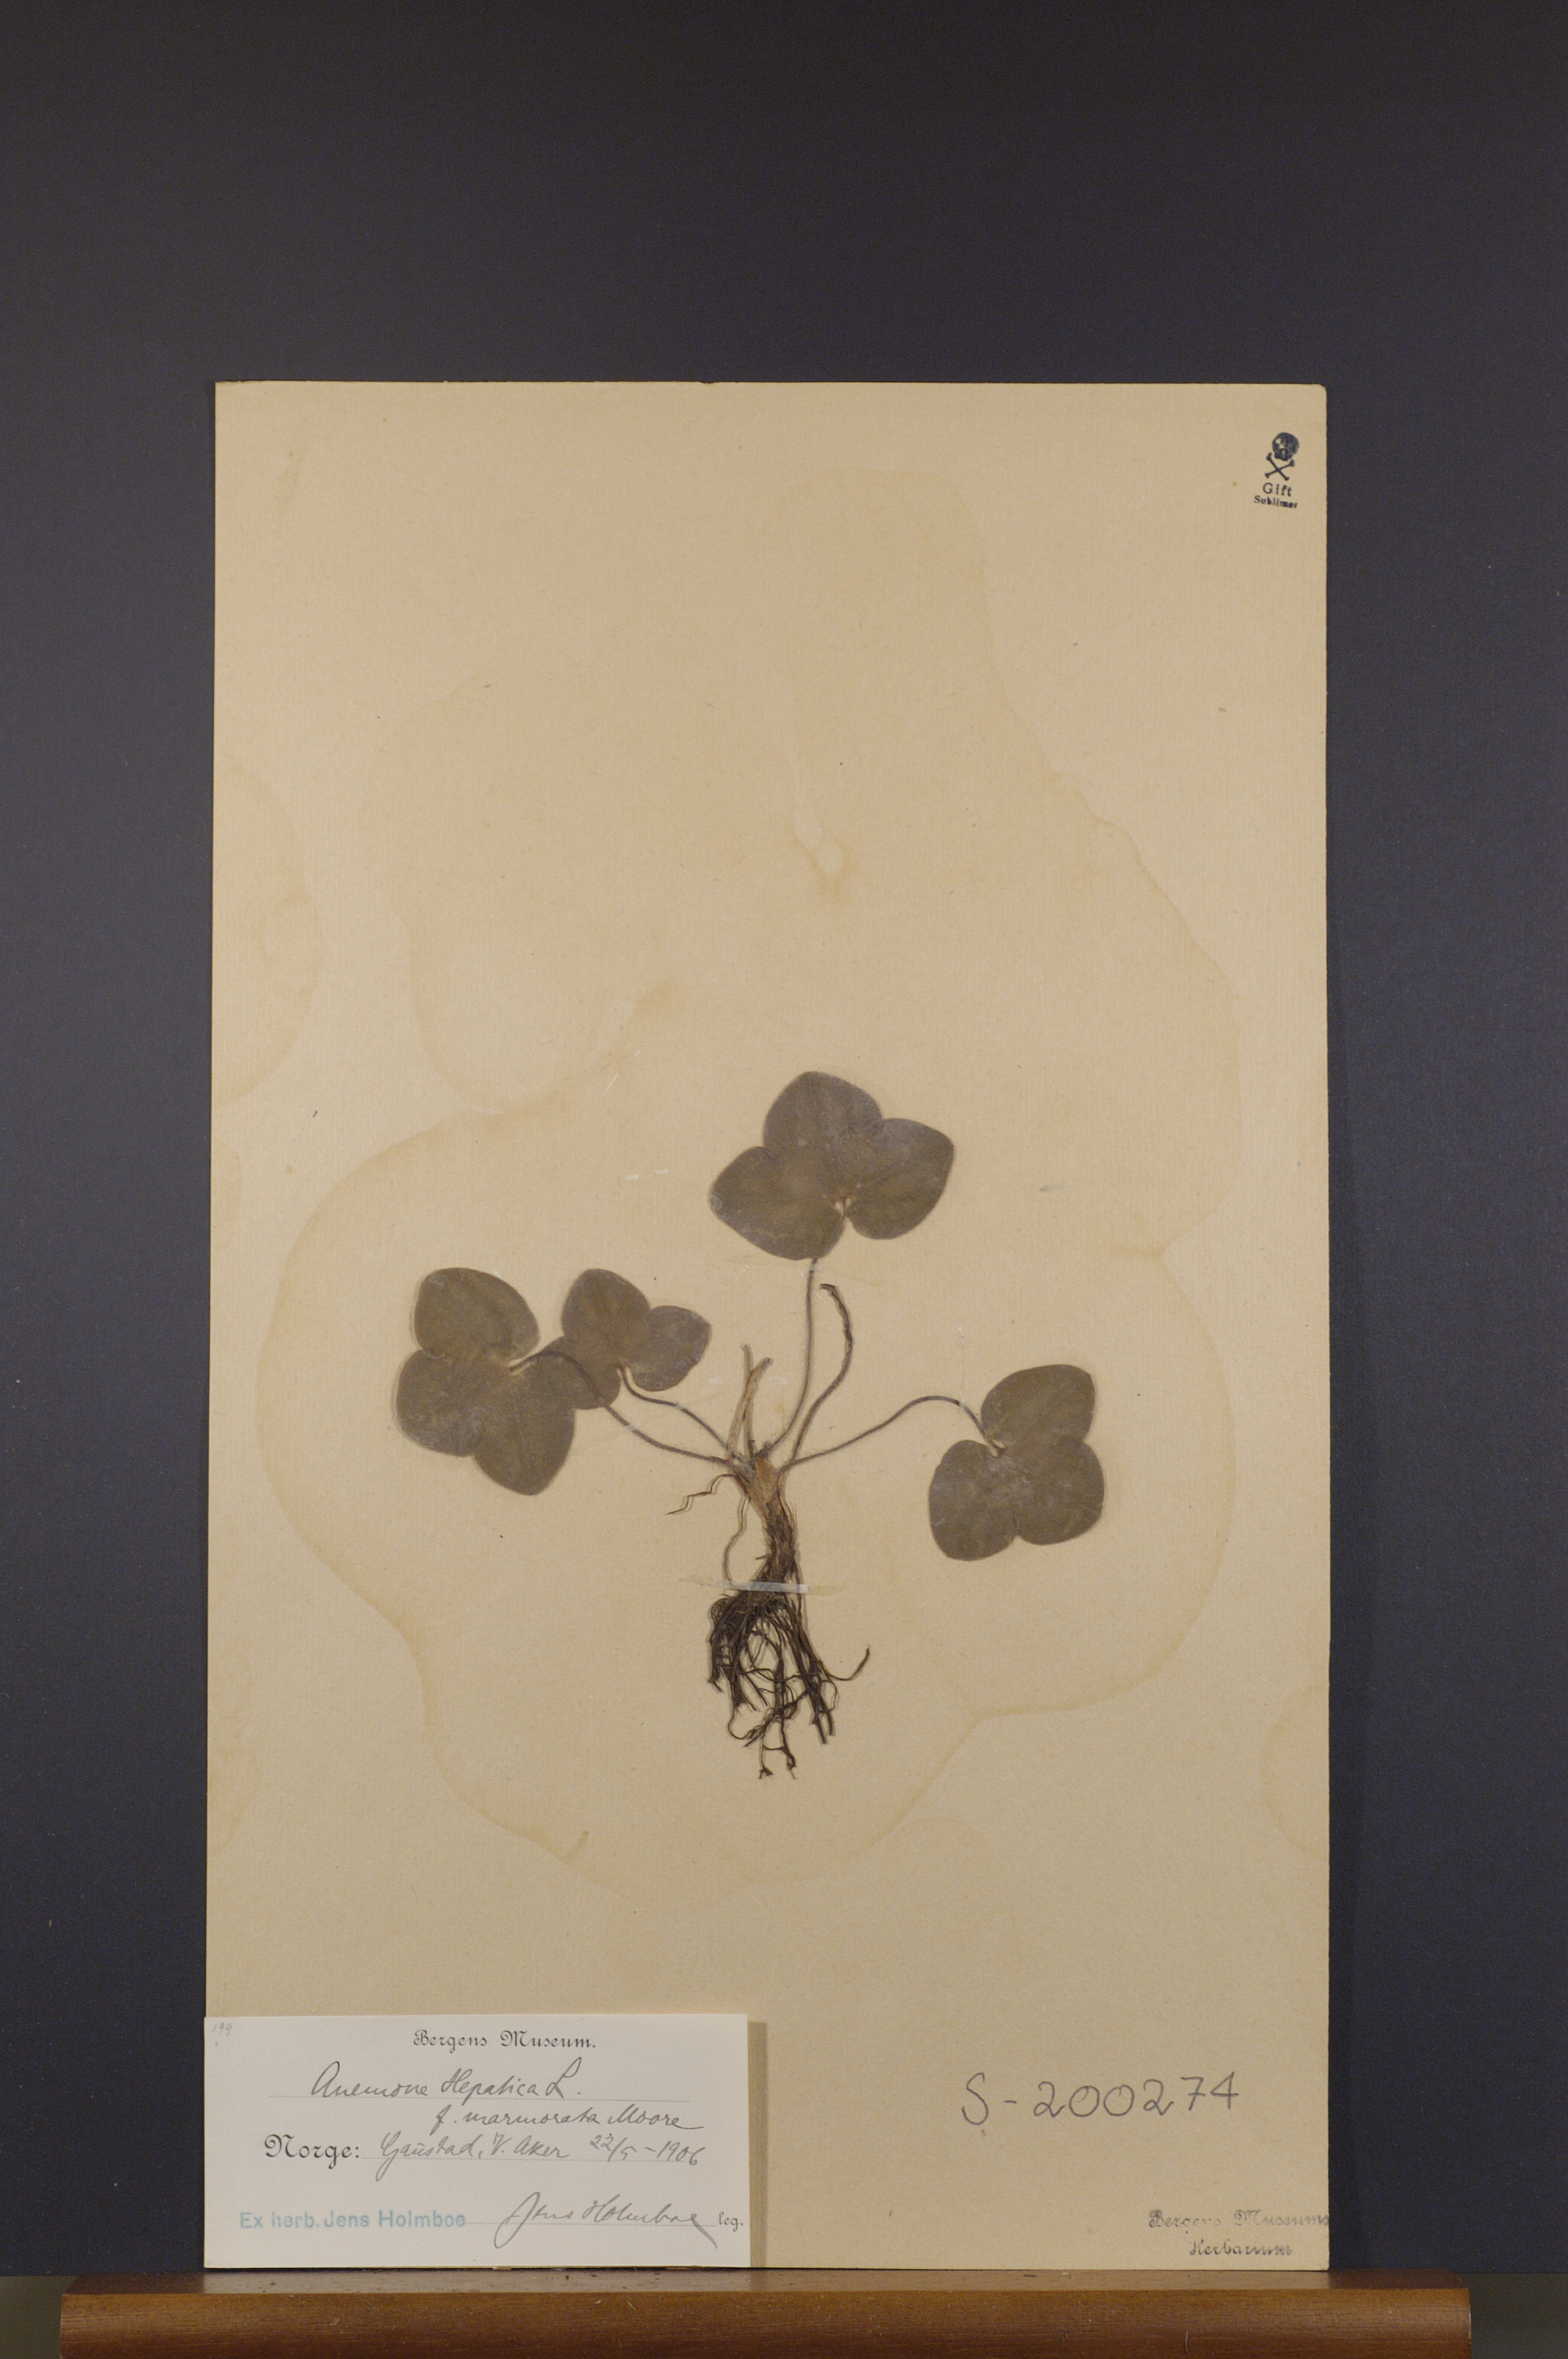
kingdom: Plantae
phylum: Tracheophyta
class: Magnoliopsida
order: Ranunculales
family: Ranunculaceae
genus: Hepatica
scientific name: Hepatica nobilis
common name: Liverleaf
